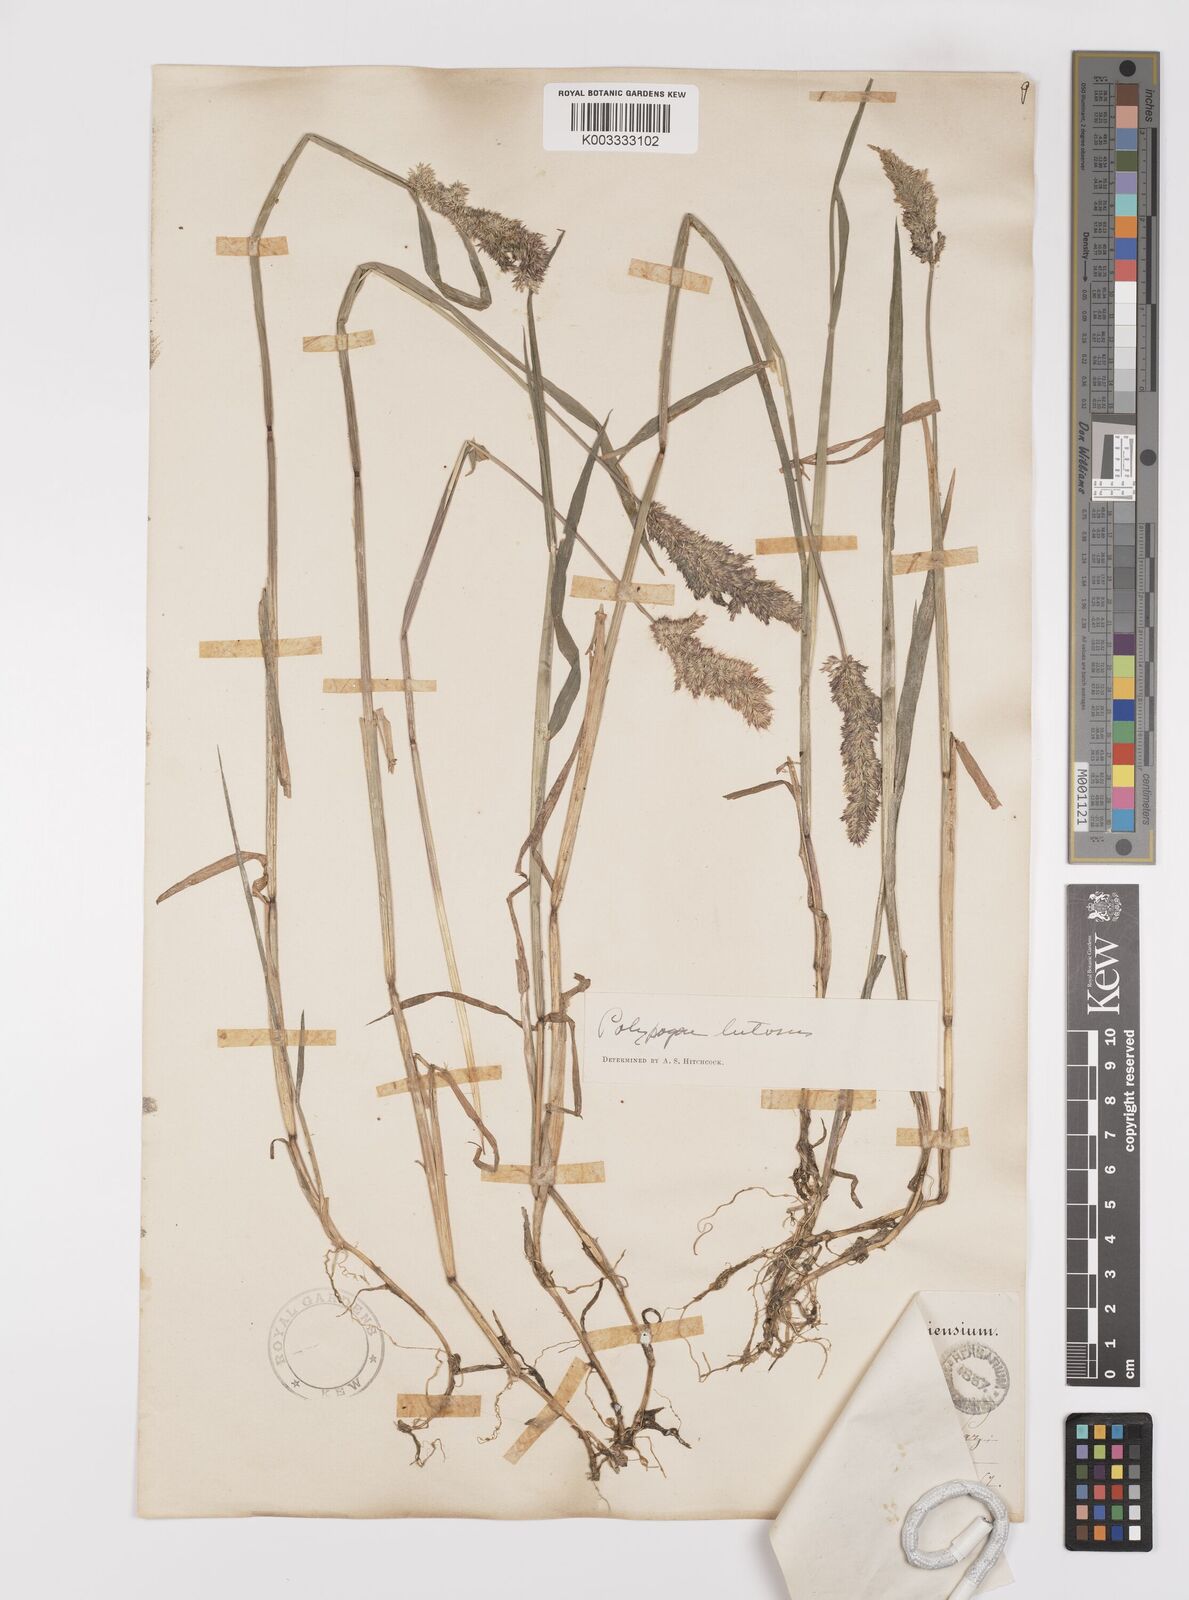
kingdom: Plantae
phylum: Tracheophyta
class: Liliopsida
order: Poales
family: Poaceae
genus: Polypogon
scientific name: Polypogon interruptus
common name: Ditch polypogon
